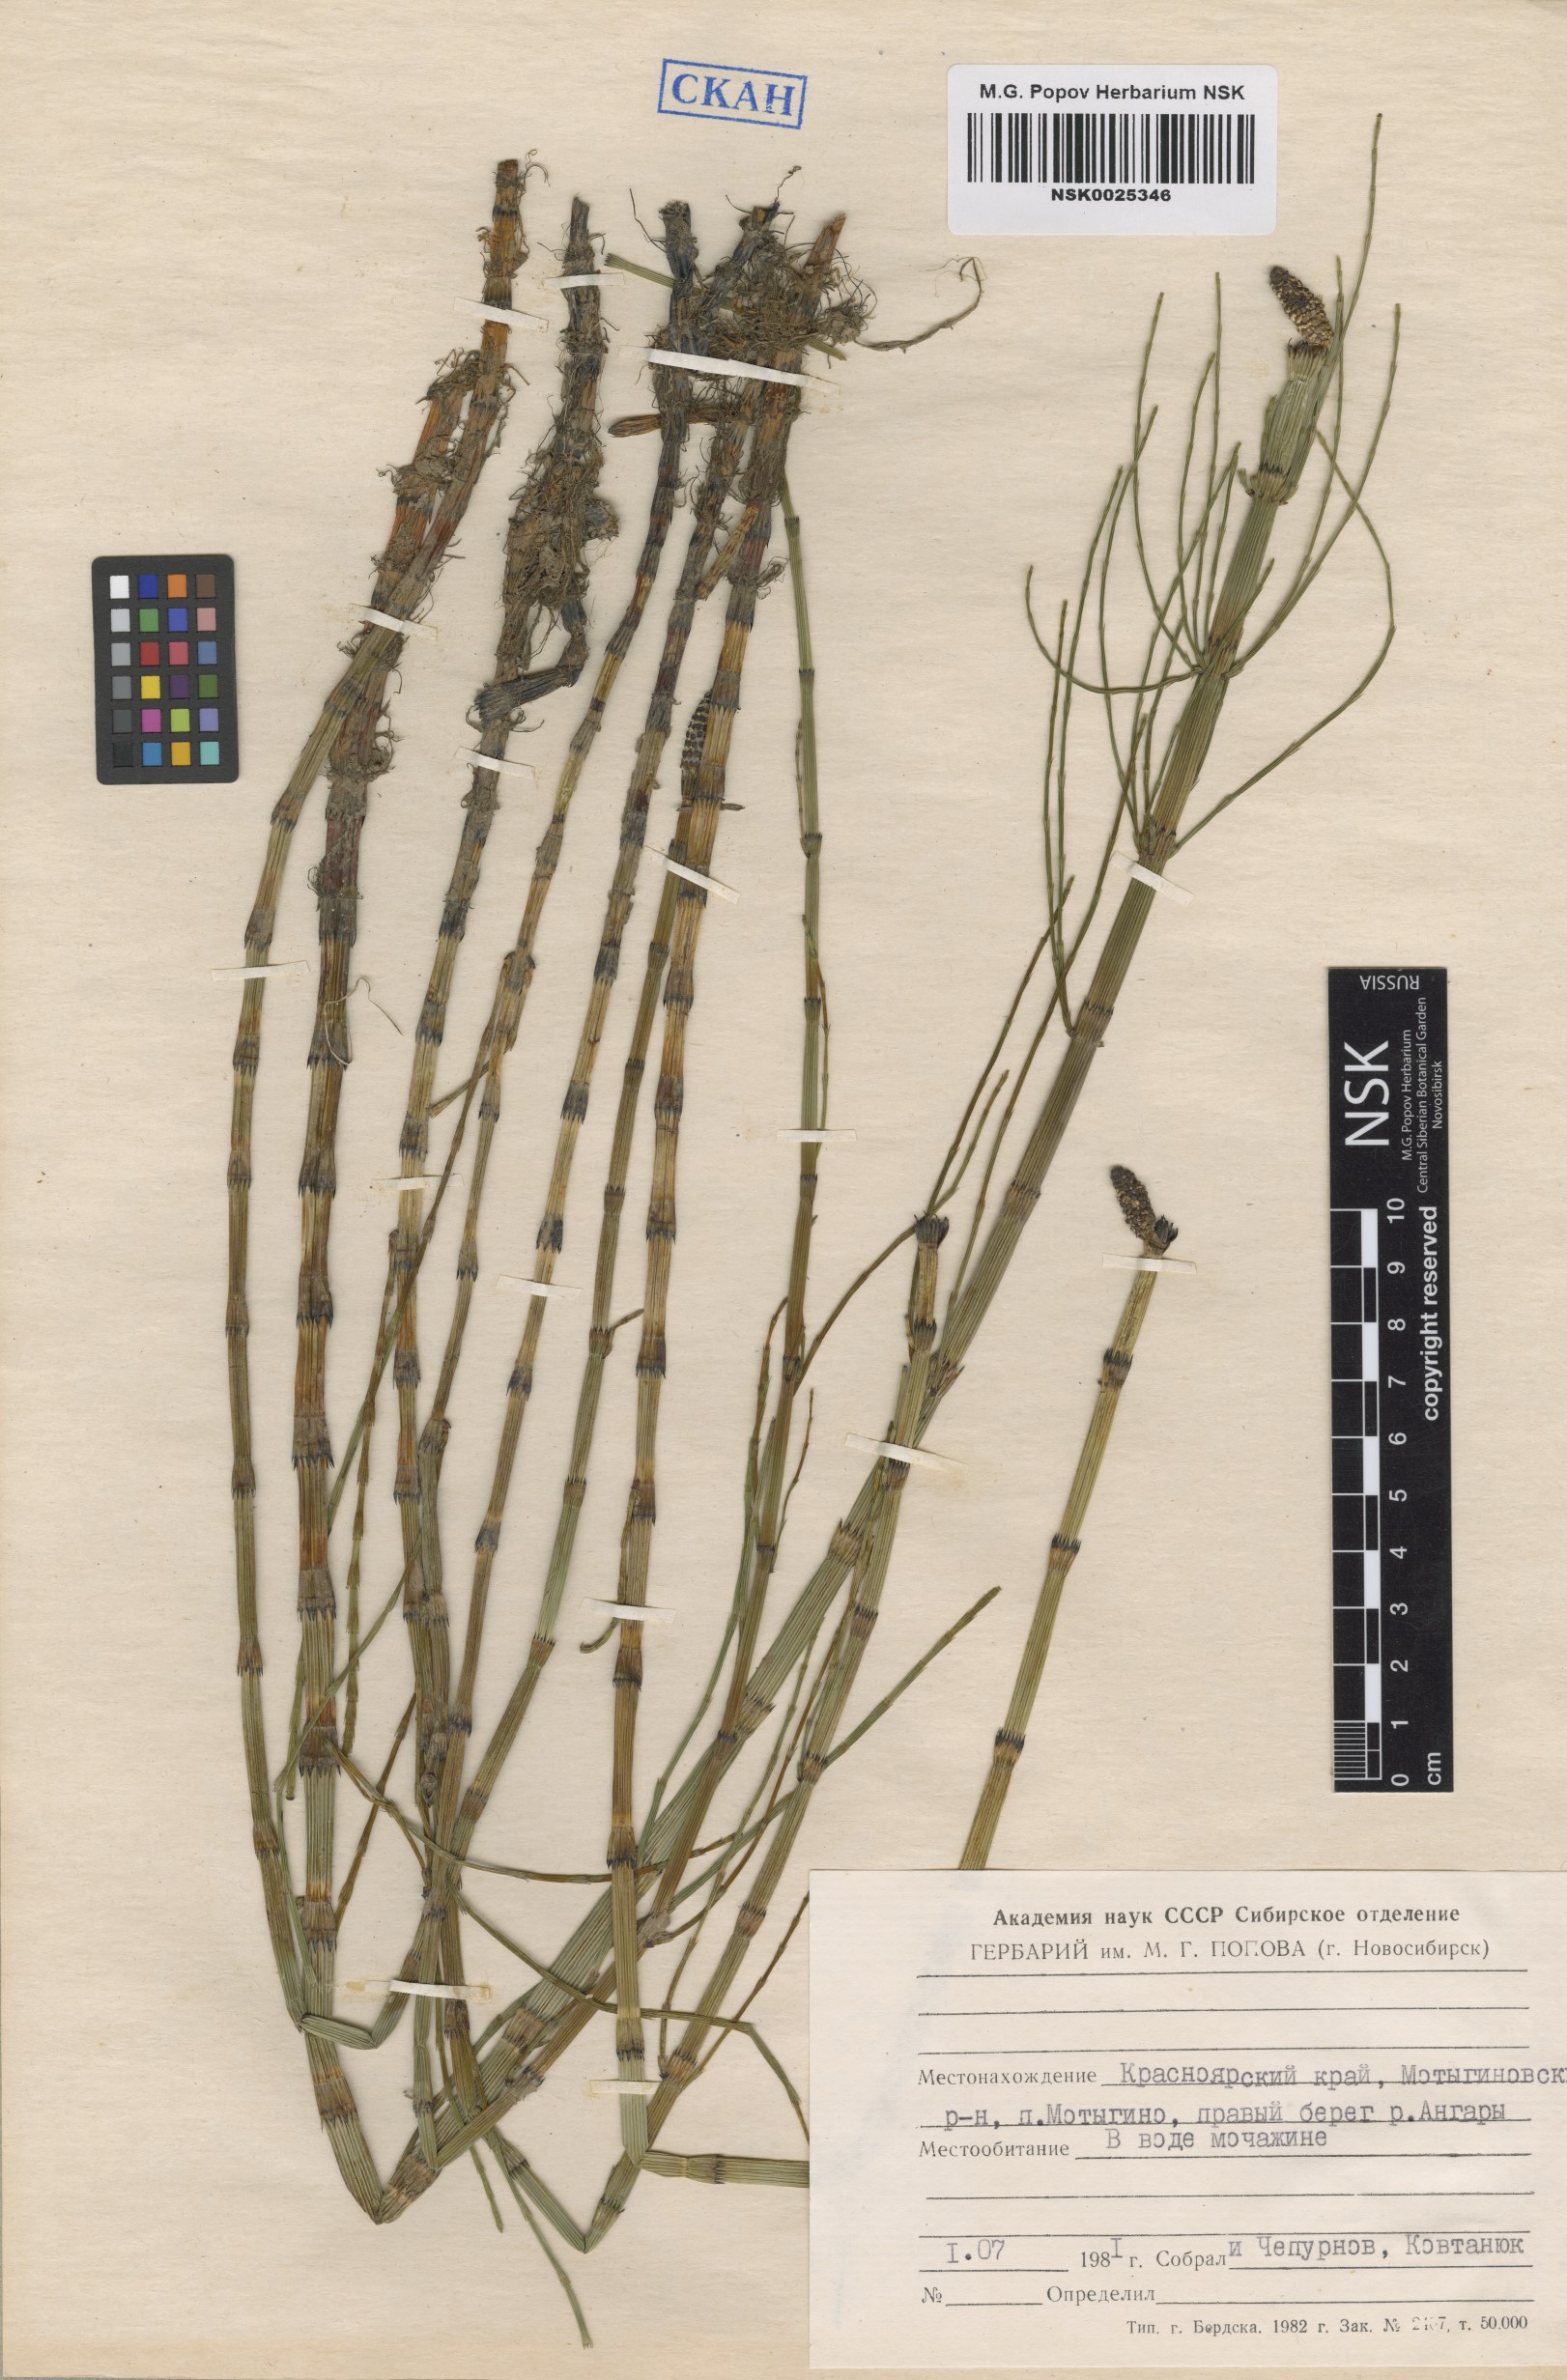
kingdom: Plantae
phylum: Tracheophyta
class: Polypodiopsida
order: Equisetales
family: Equisetaceae
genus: Equisetum
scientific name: Equisetum fluviatile
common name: Water horsetail
